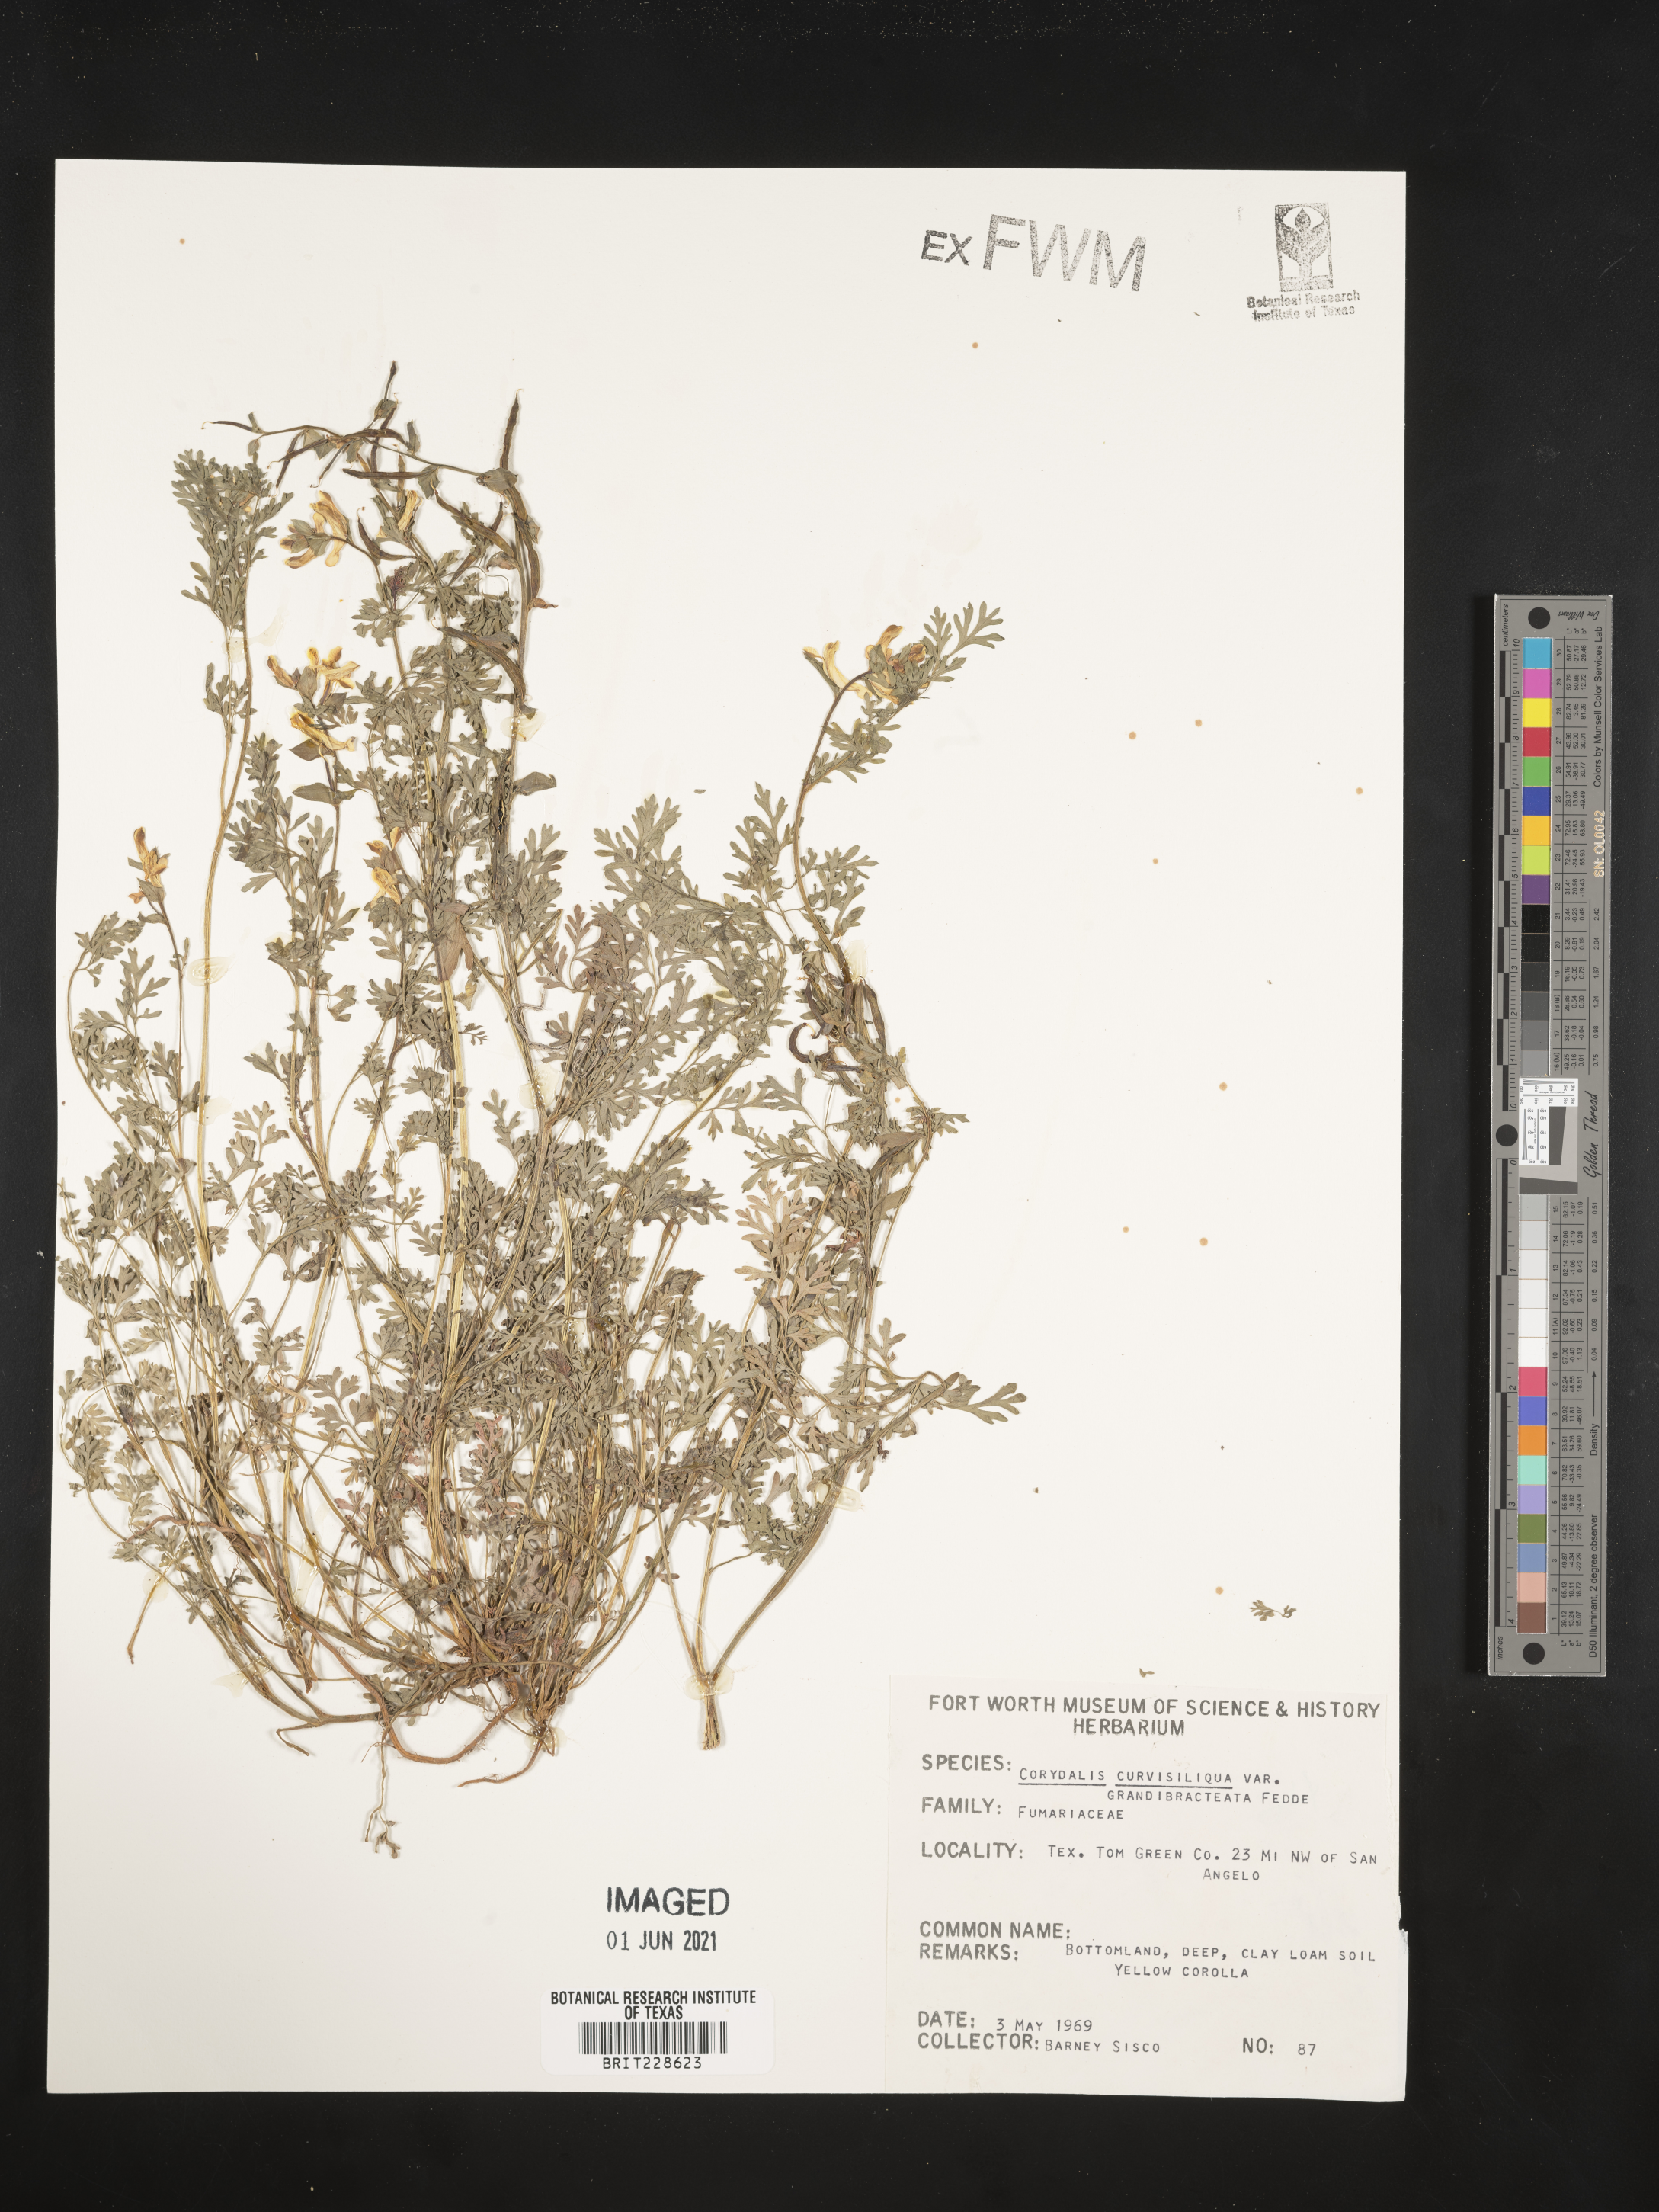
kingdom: Plantae
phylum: Tracheophyta
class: Magnoliopsida
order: Ranunculales
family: Papaveraceae
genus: Corydalis
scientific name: Corydalis curvisiliqua
